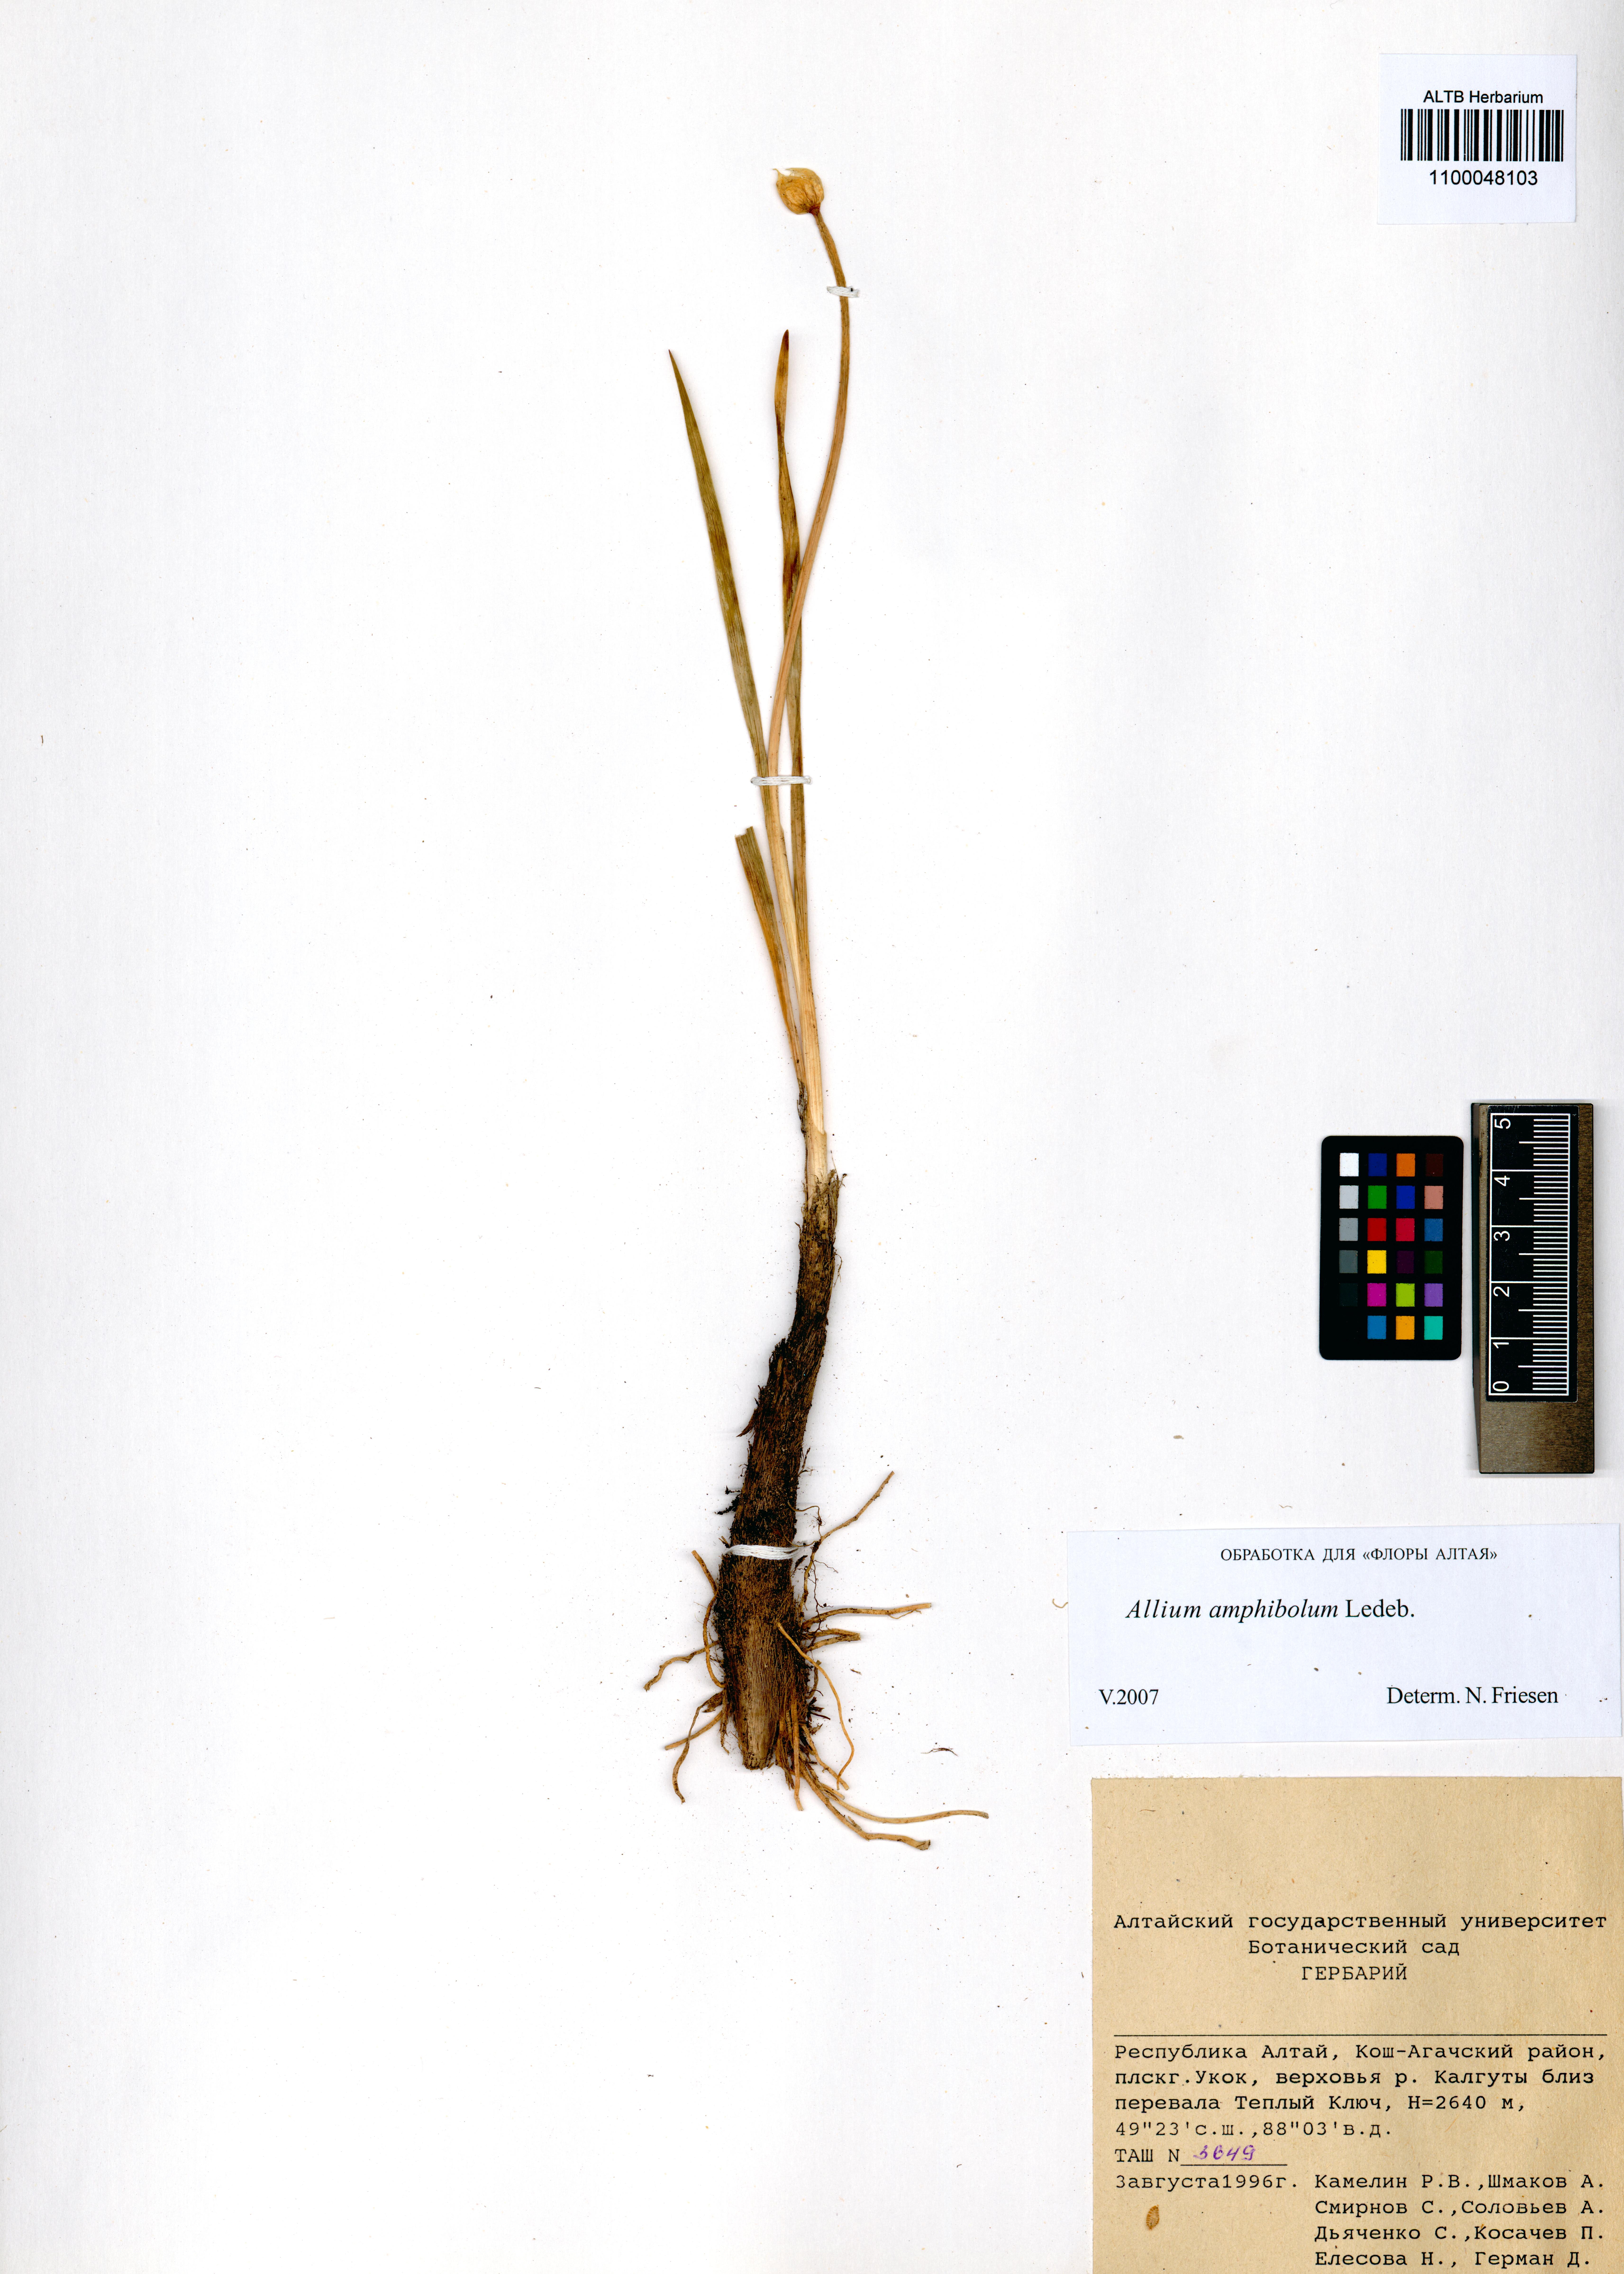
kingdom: Plantae
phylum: Tracheophyta
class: Liliopsida
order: Asparagales
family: Amaryllidaceae
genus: Allium
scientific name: Allium amphibolum
